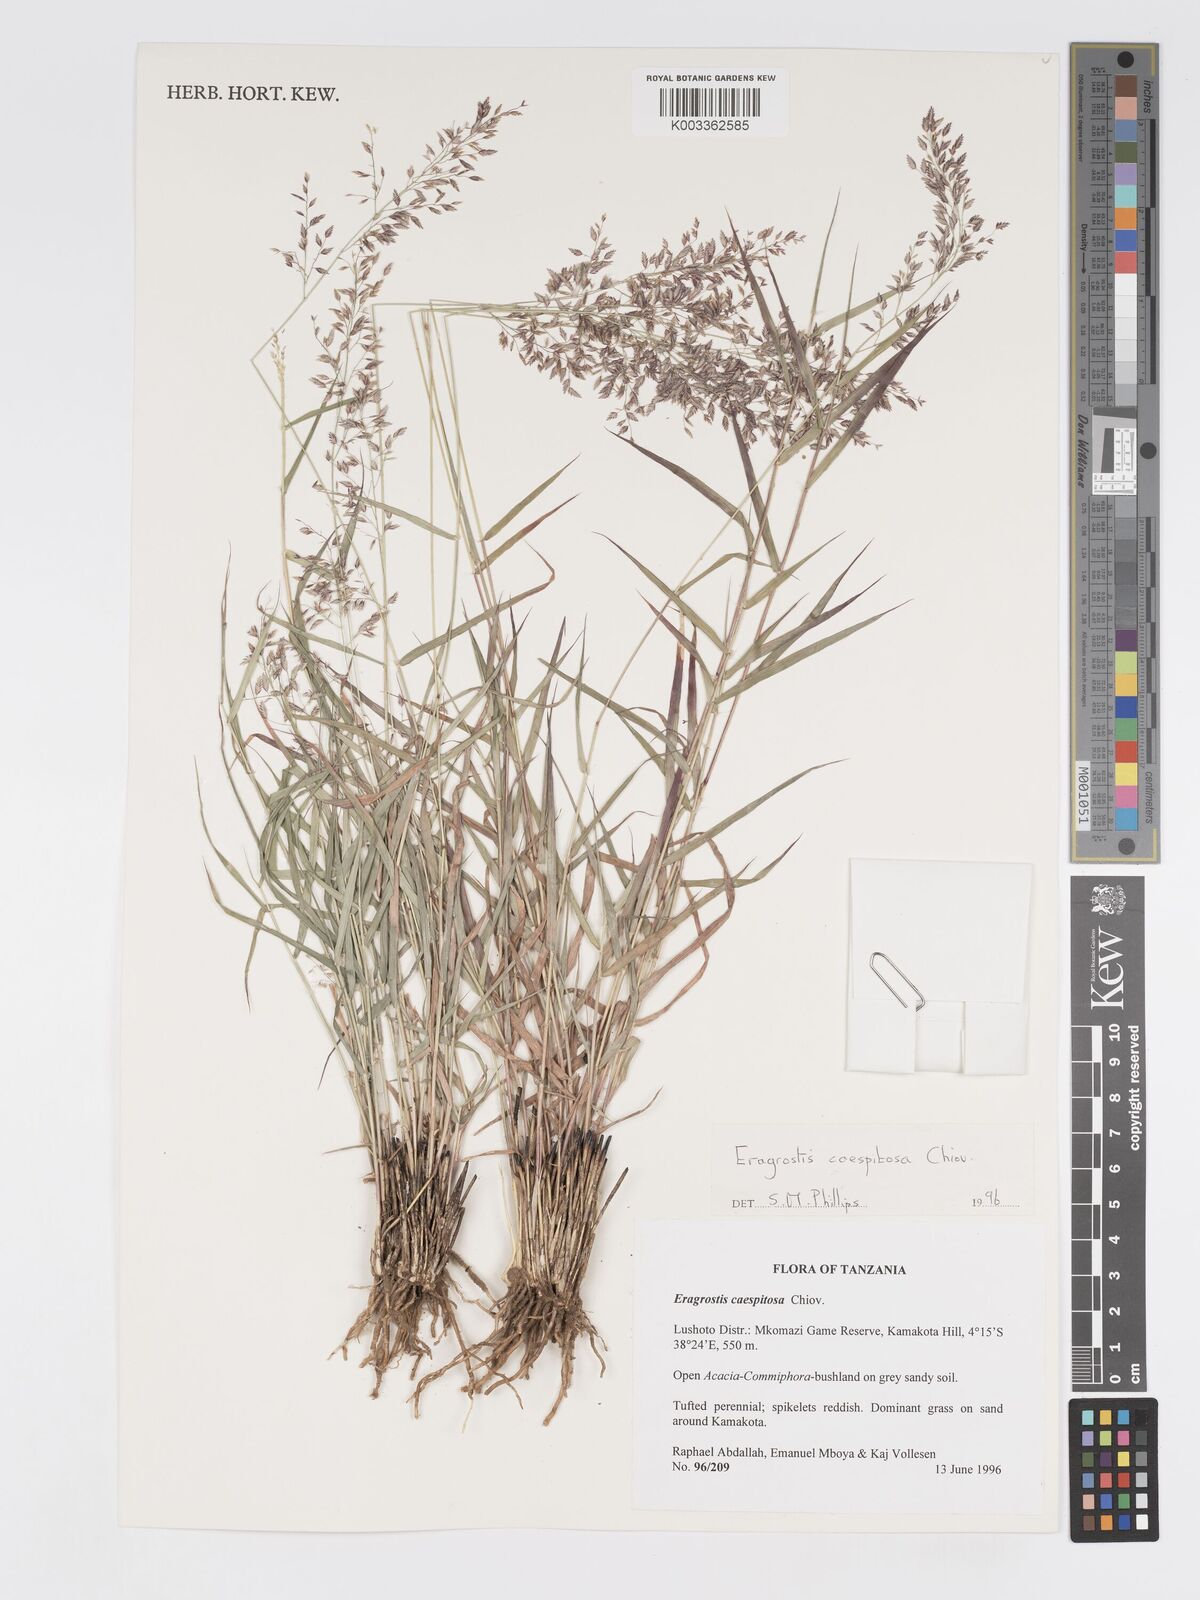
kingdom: Plantae
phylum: Tracheophyta
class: Liliopsida
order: Poales
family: Poaceae
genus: Eragrostis
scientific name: Eragrostis caespitosa
